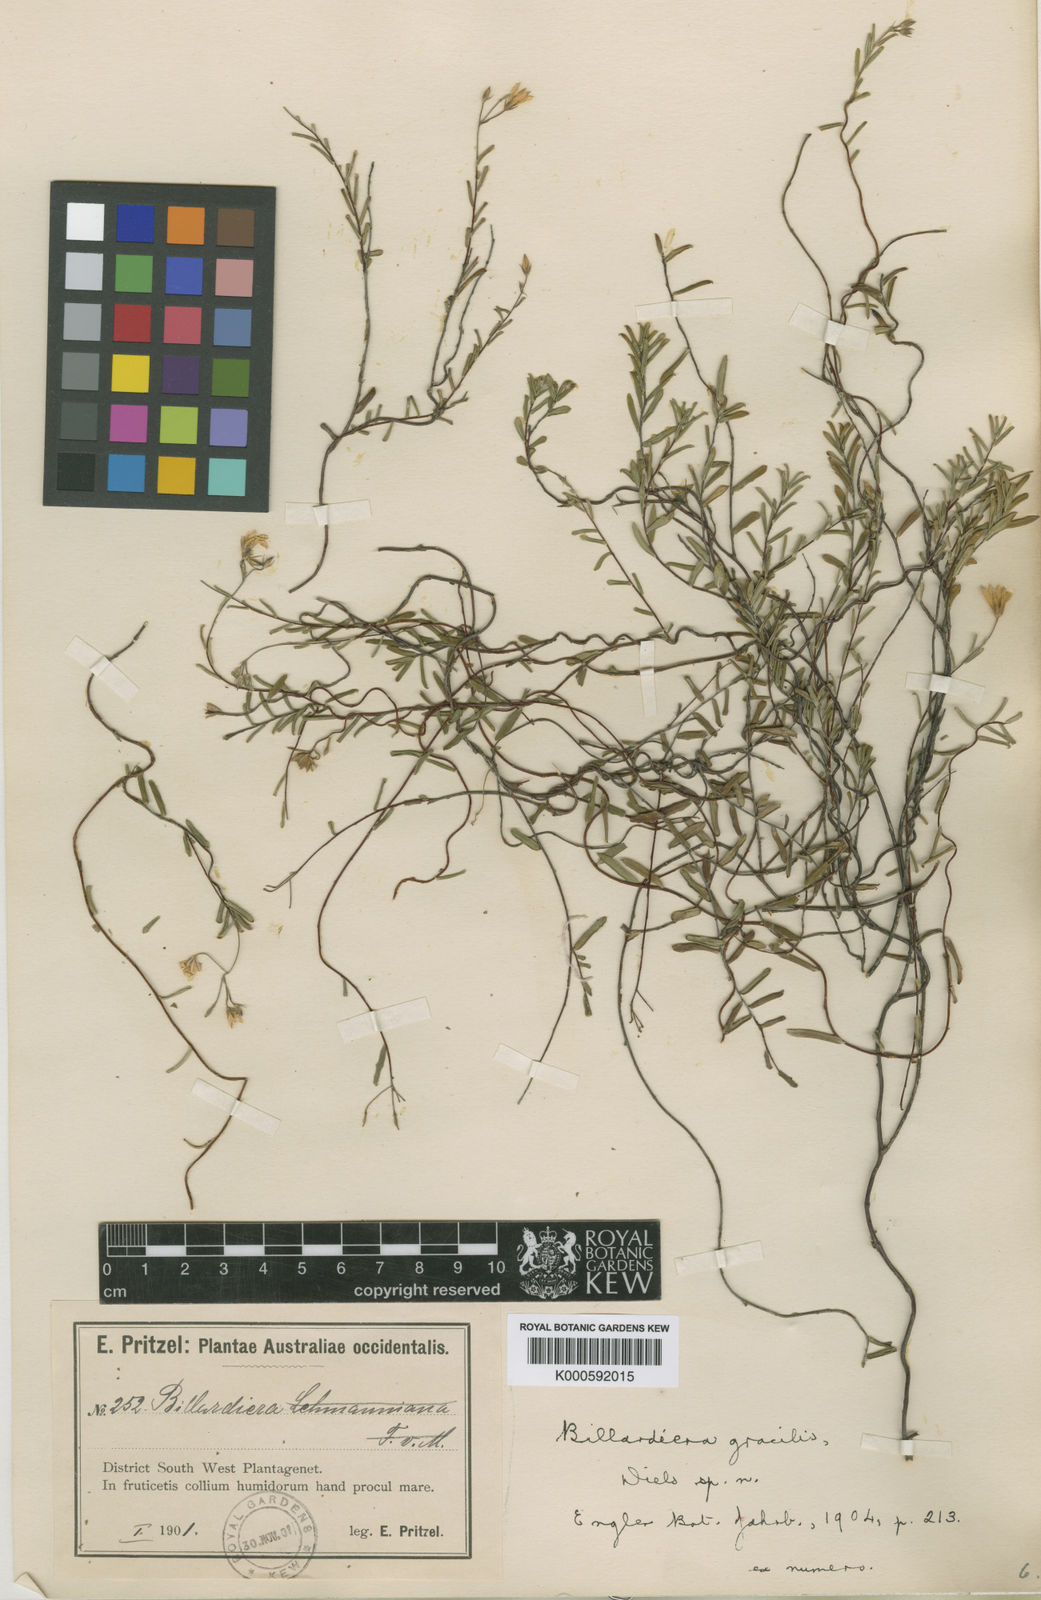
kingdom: Plantae
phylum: Tracheophyta
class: Magnoliopsida
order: Apiales
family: Pittosporaceae
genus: Billardiera
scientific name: Billardiera variifolia
